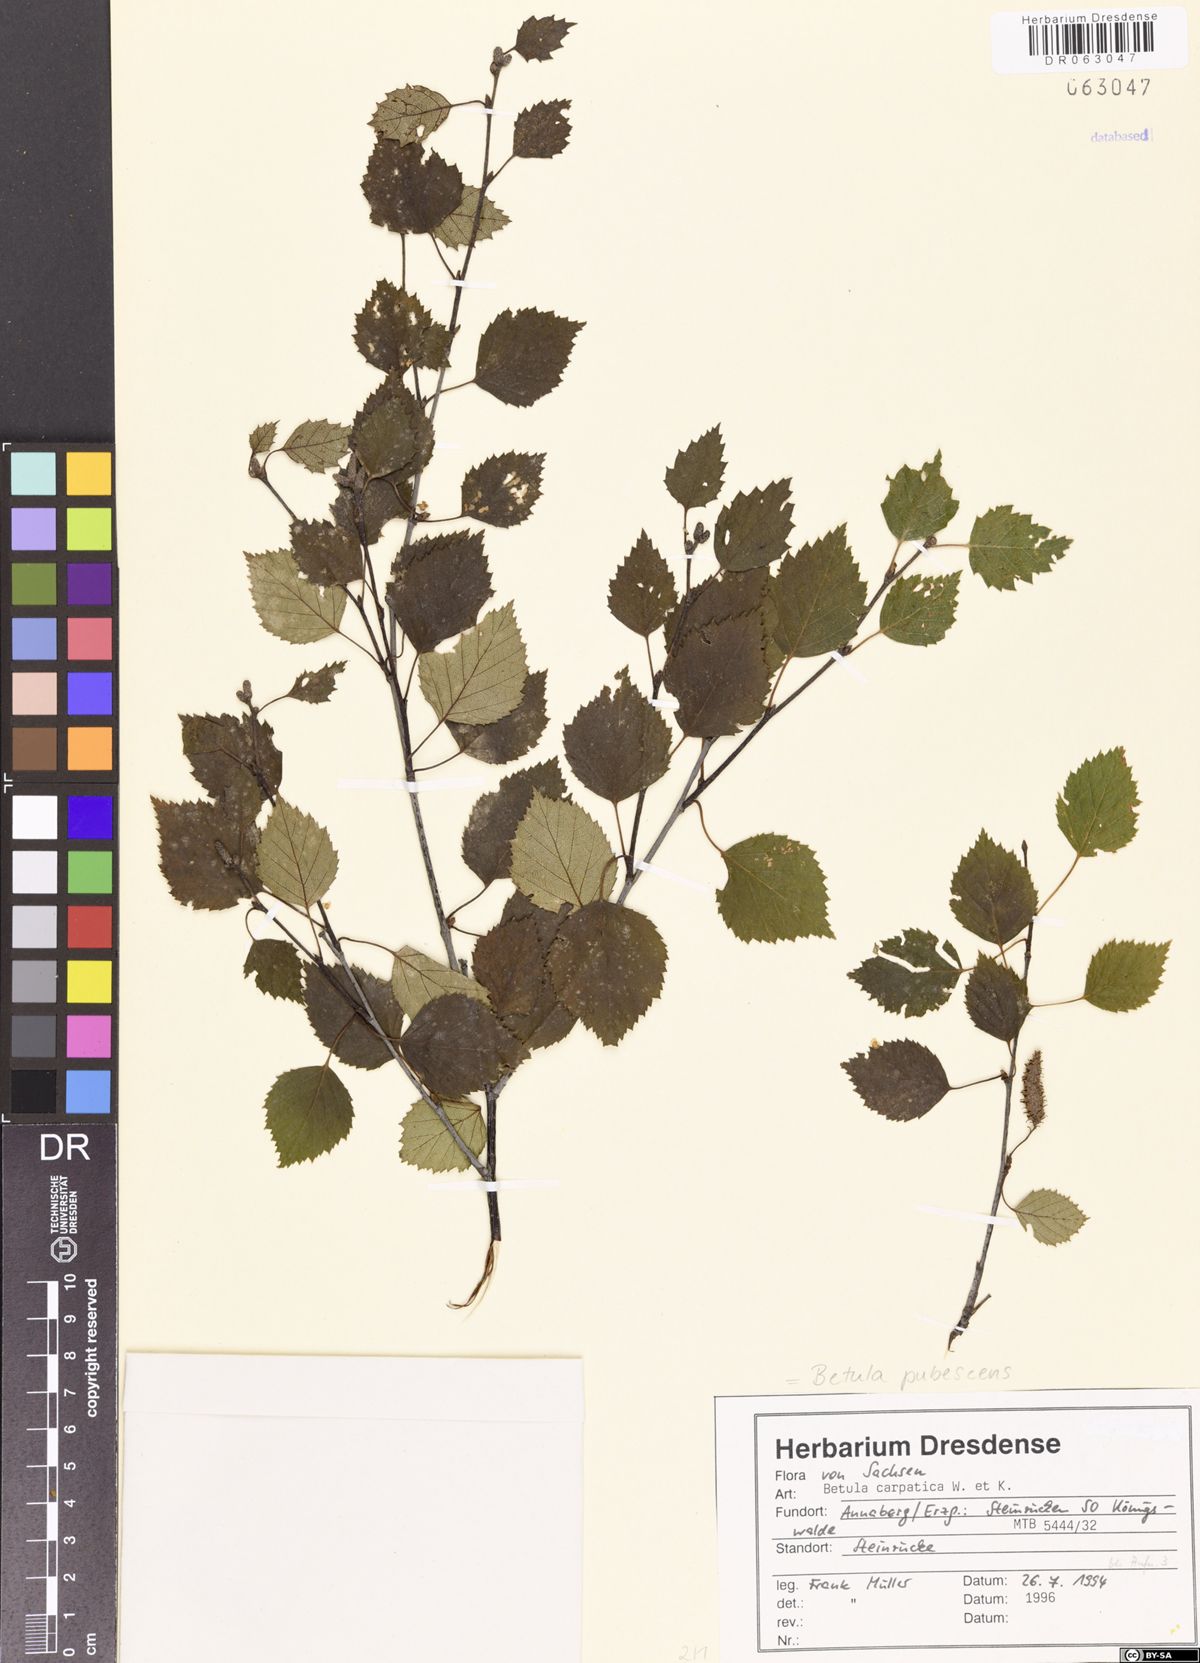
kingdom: Plantae
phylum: Tracheophyta
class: Magnoliopsida
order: Fagales
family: Betulaceae
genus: Betula
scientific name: Betula pubescens
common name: Downy birch
